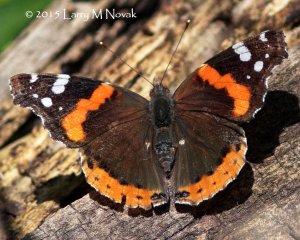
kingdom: Animalia
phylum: Arthropoda
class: Insecta
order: Lepidoptera
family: Nymphalidae
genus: Vanessa
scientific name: Vanessa atalanta
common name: Red Admiral
